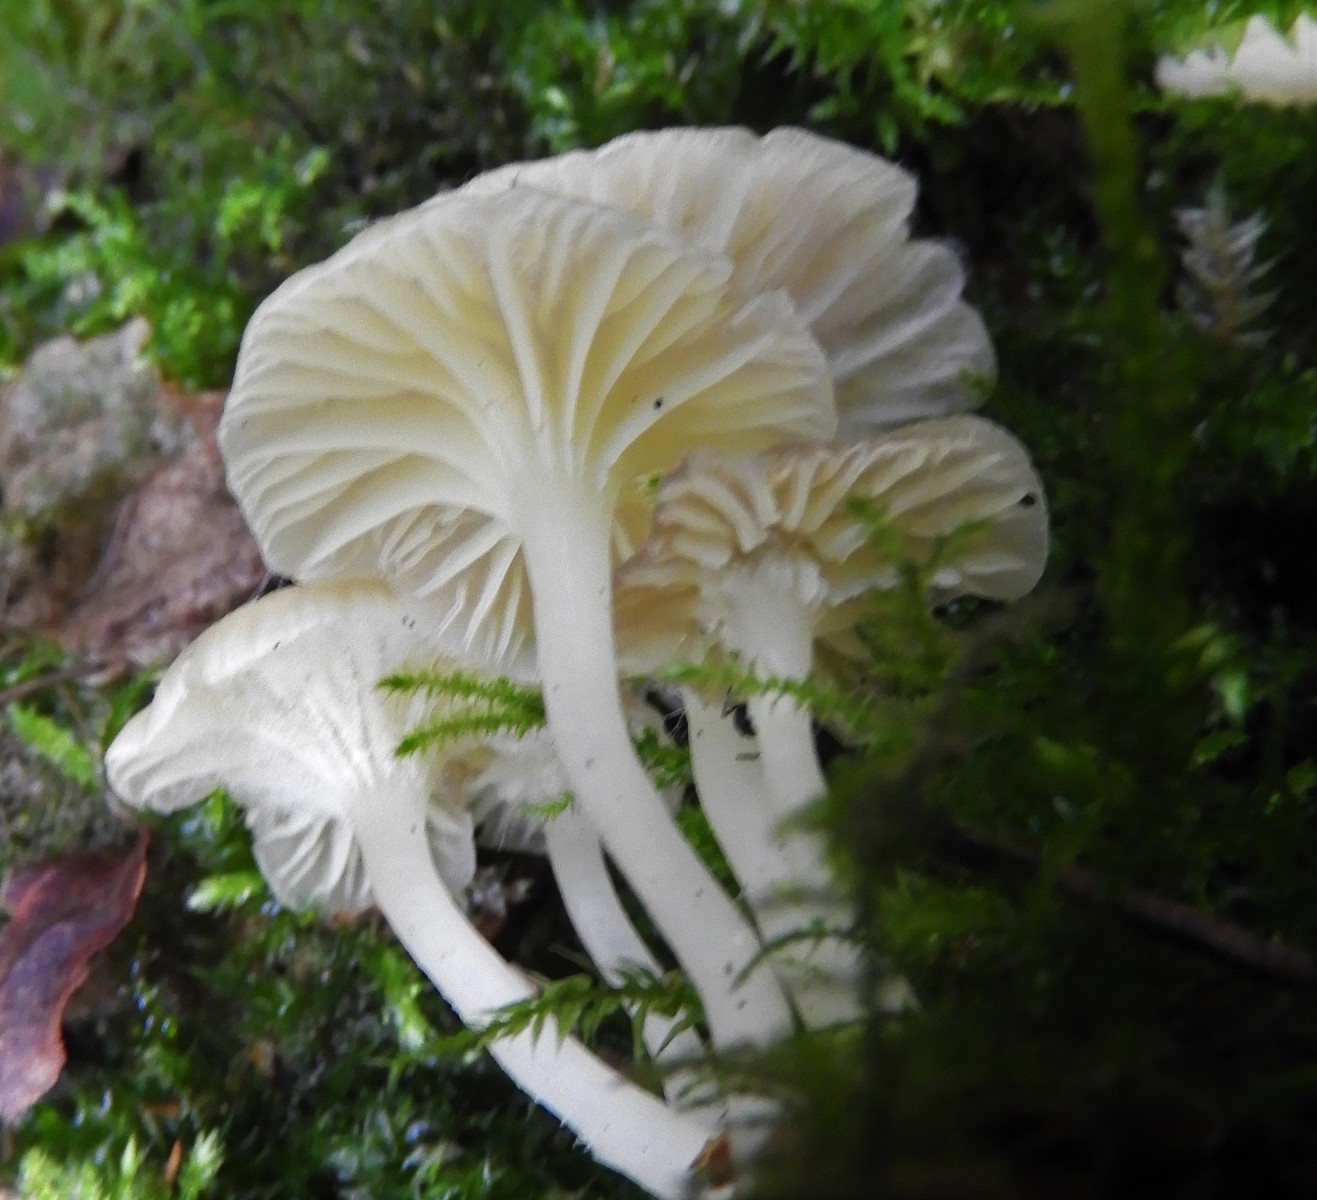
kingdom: Fungi
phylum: Basidiomycota
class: Agaricomycetes
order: Agaricales
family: Hygrophoraceae
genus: Chrysomphalina
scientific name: Chrysomphalina grossula
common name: stød-gyldenblad
